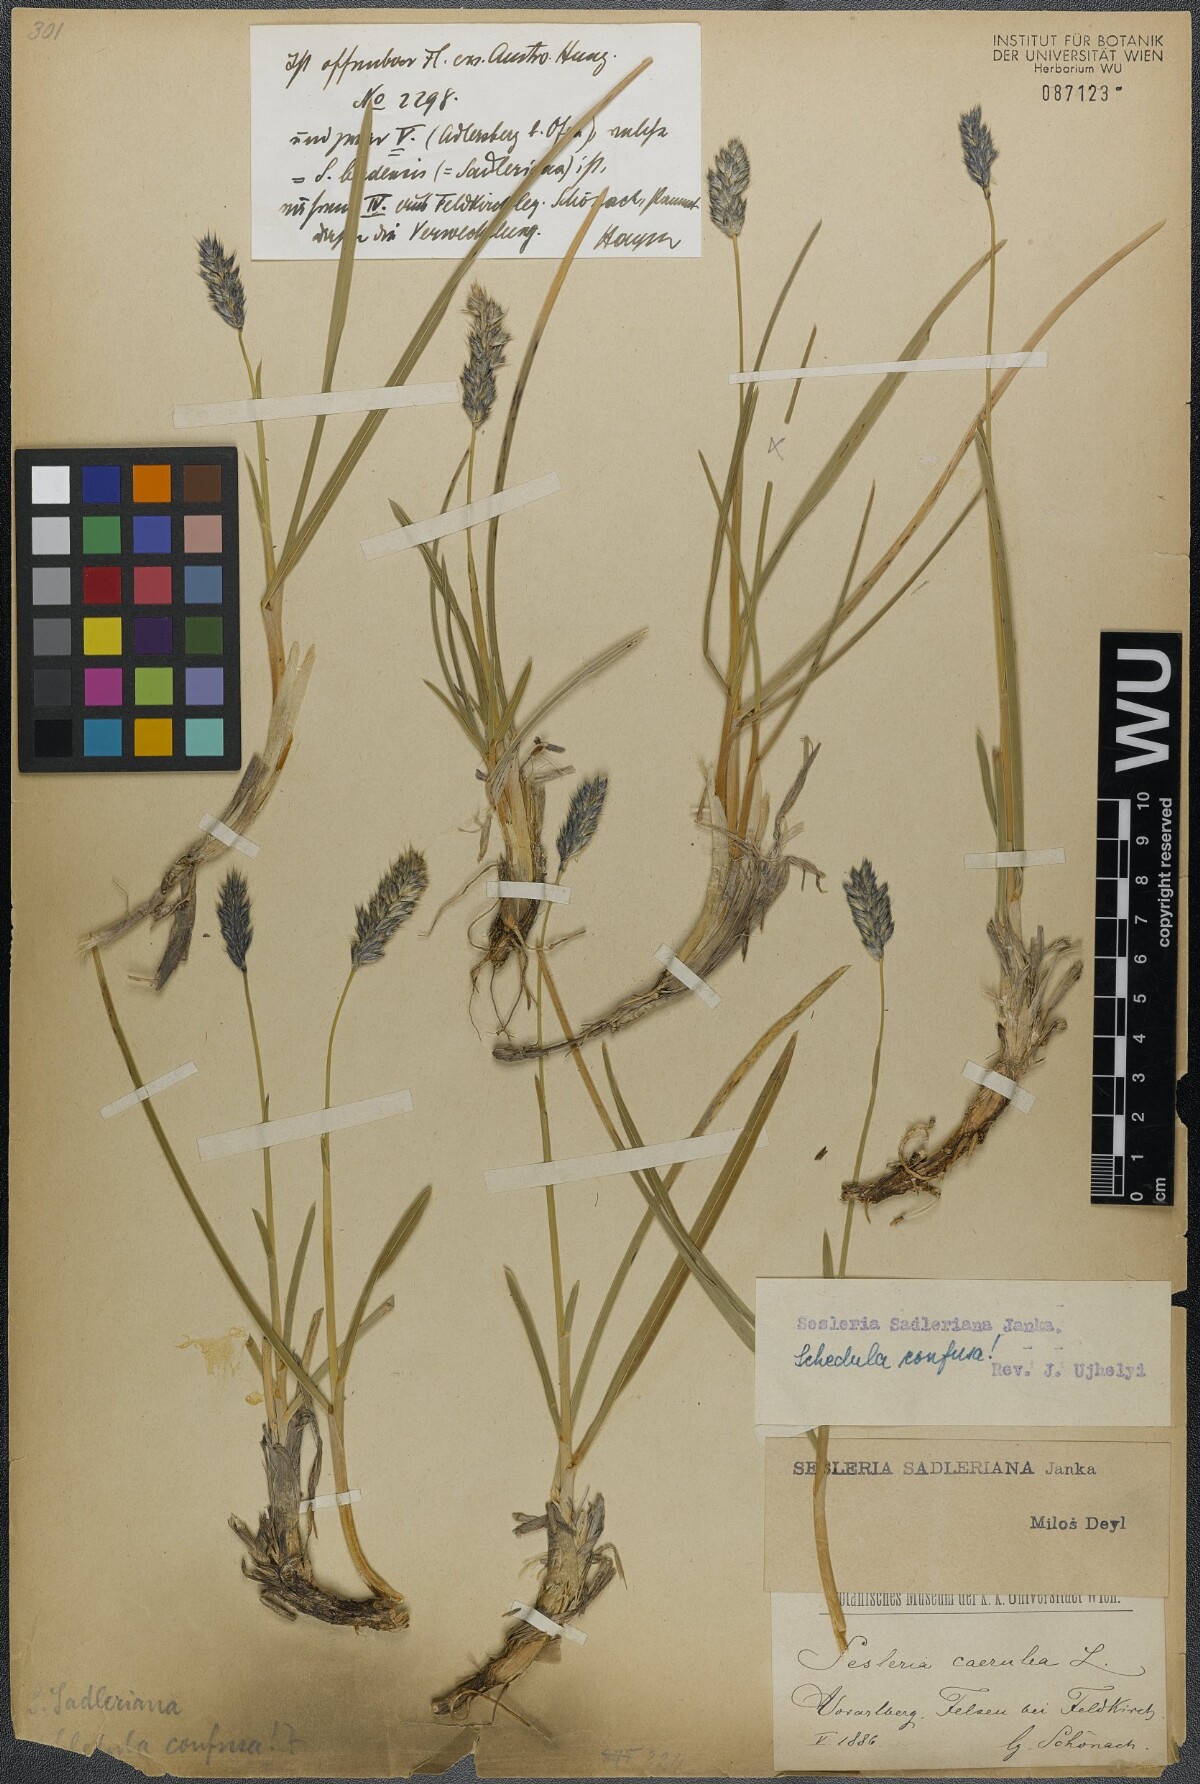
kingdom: Plantae
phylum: Tracheophyta
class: Liliopsida
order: Poales
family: Poaceae
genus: Sesleria
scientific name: Sesleria sadleriana
